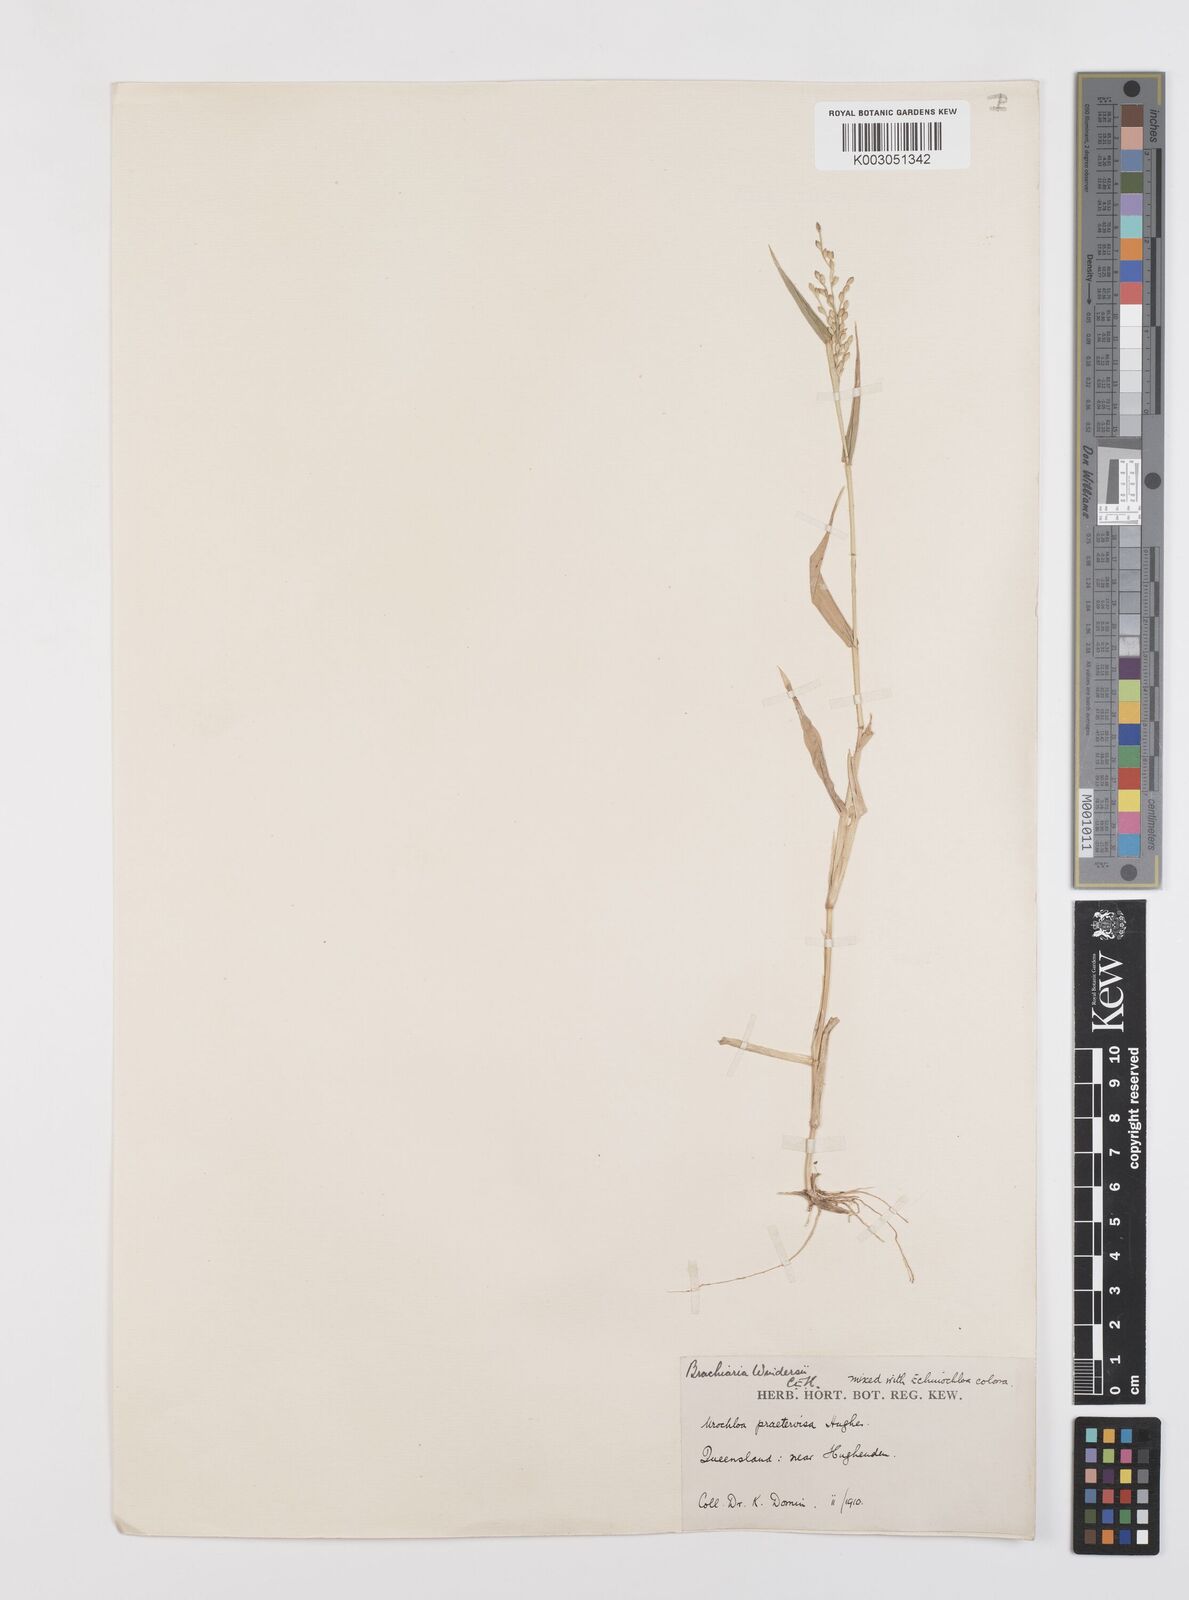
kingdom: Plantae
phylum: Tracheophyta
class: Liliopsida
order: Poales
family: Poaceae
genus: Urochloa
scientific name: Urochloa whiteana
